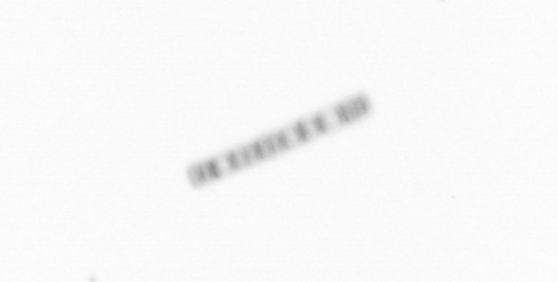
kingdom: Chromista
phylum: Ochrophyta
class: Bacillariophyceae
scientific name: Bacillariophyceae
